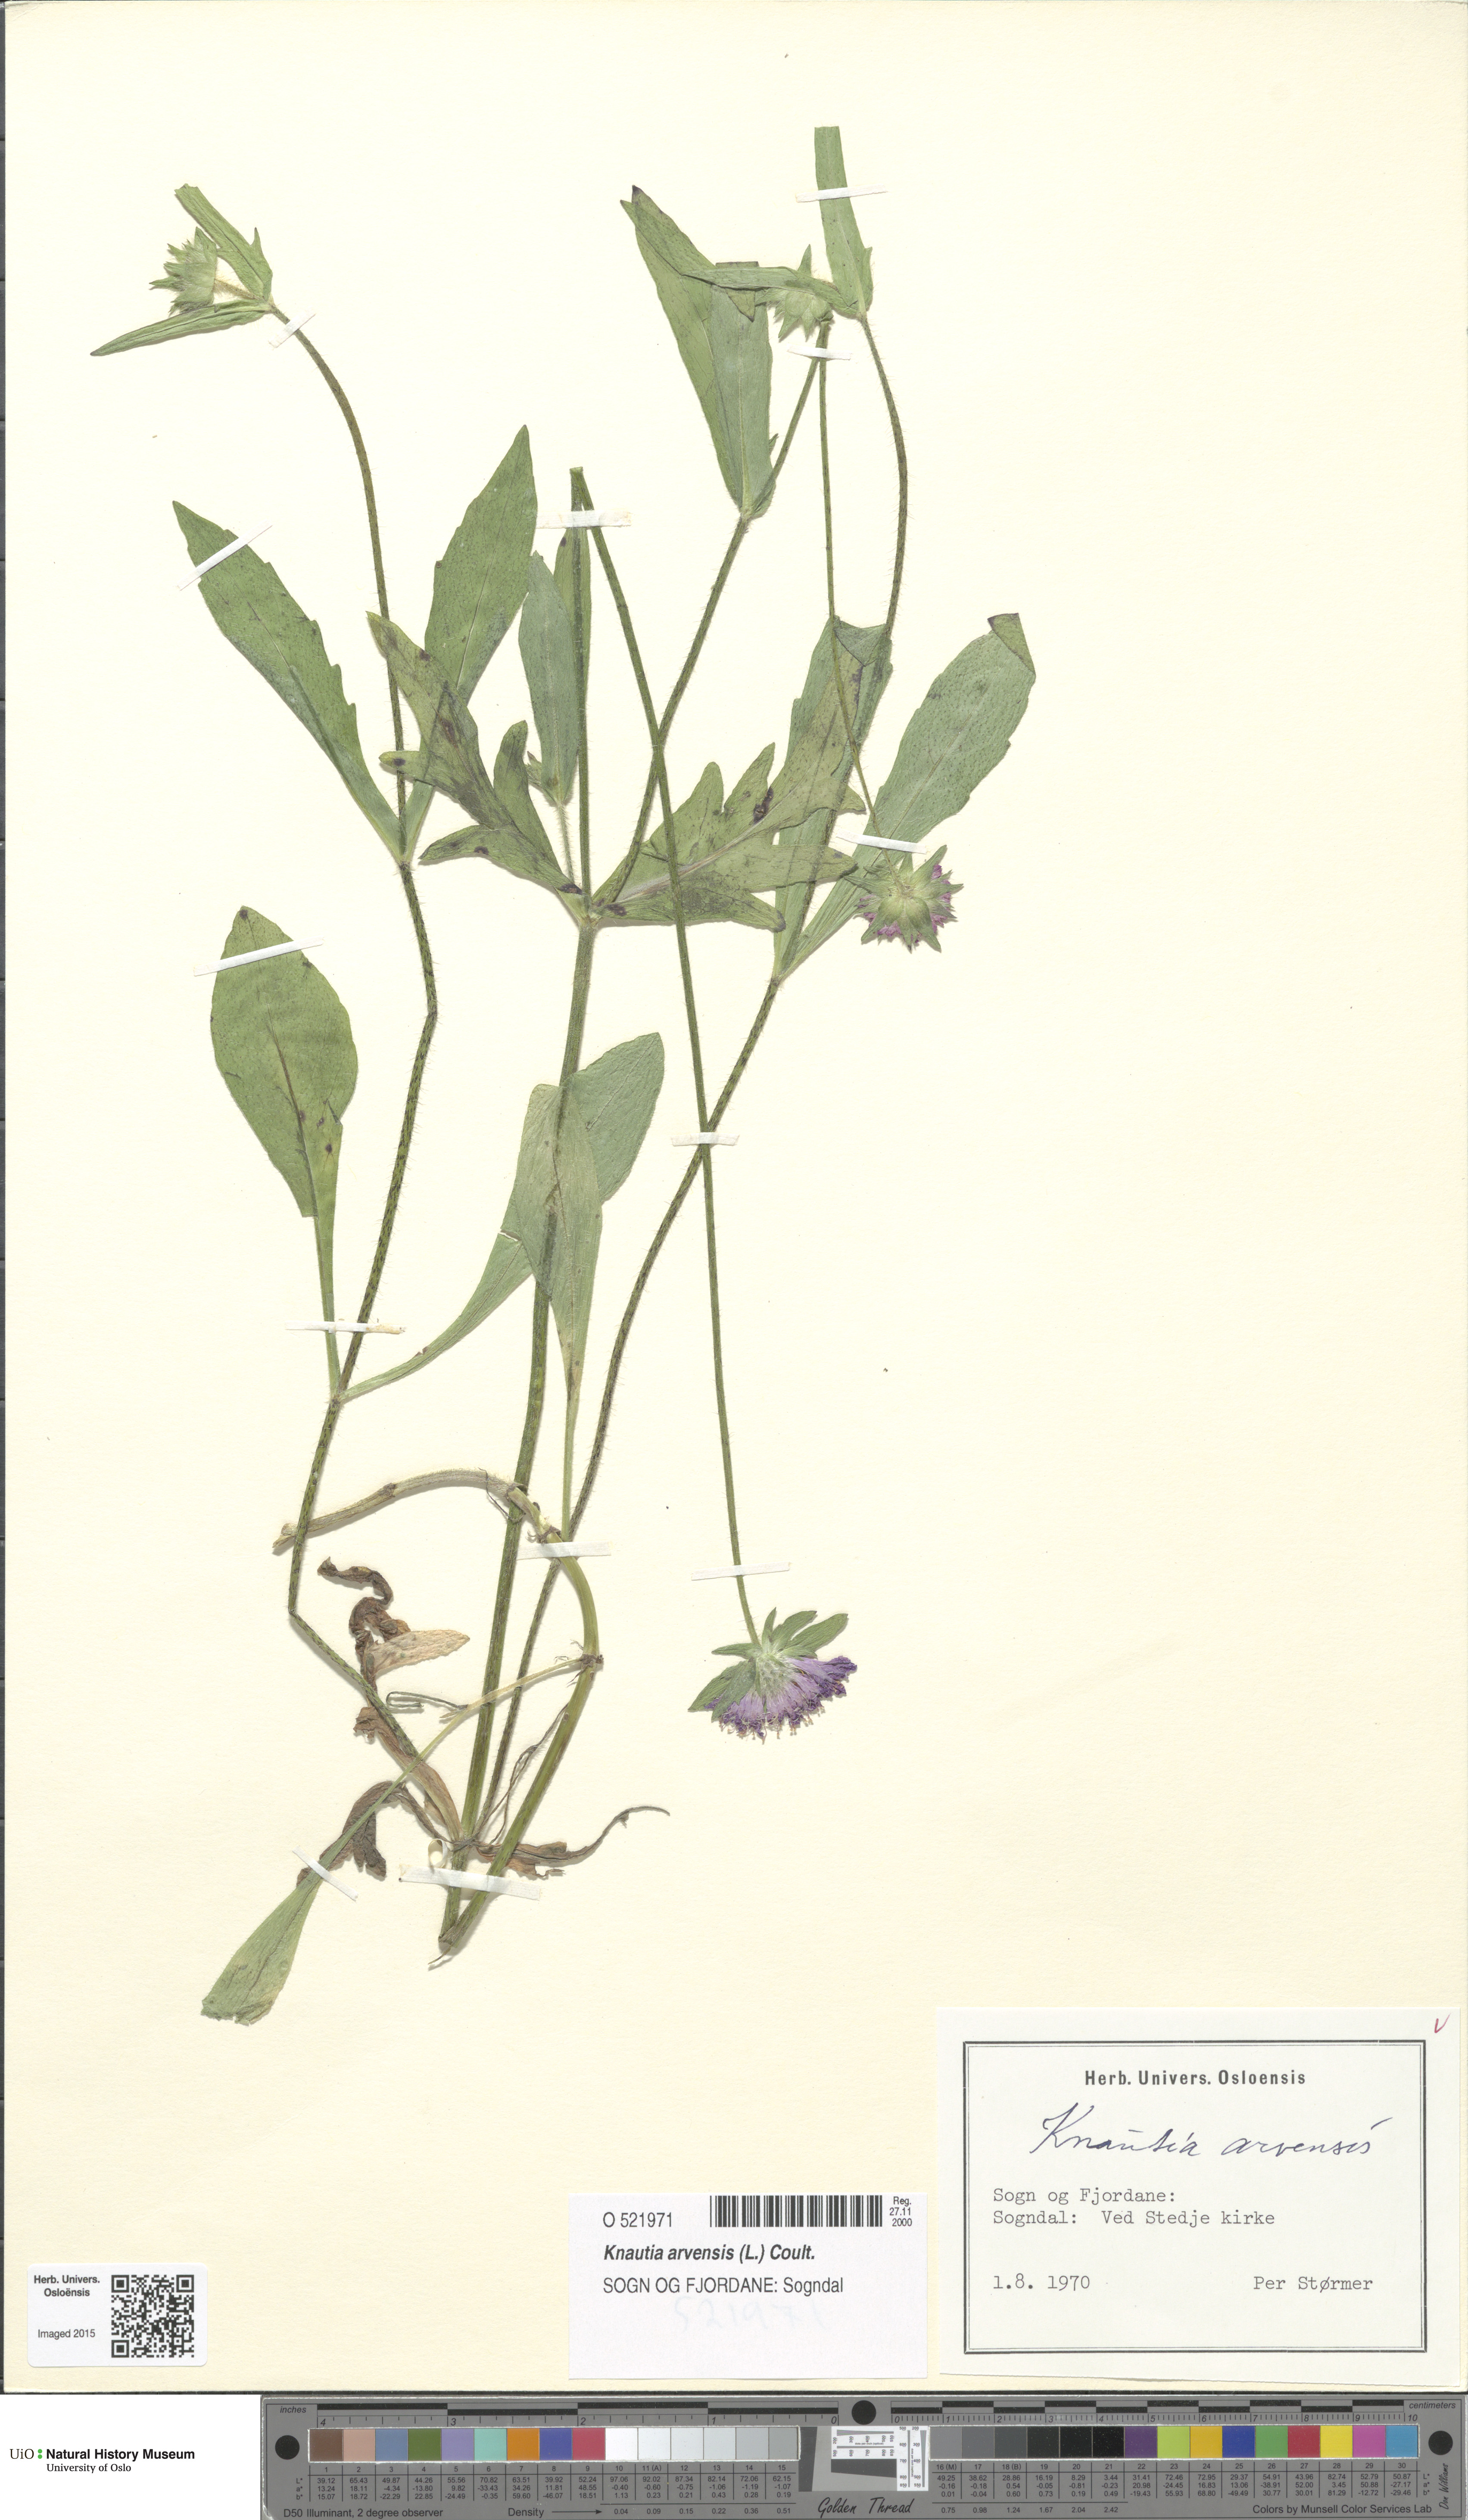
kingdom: Plantae
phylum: Tracheophyta
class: Magnoliopsida
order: Dipsacales
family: Caprifoliaceae
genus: Knautia
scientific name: Knautia arvensis
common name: Field scabiosa
